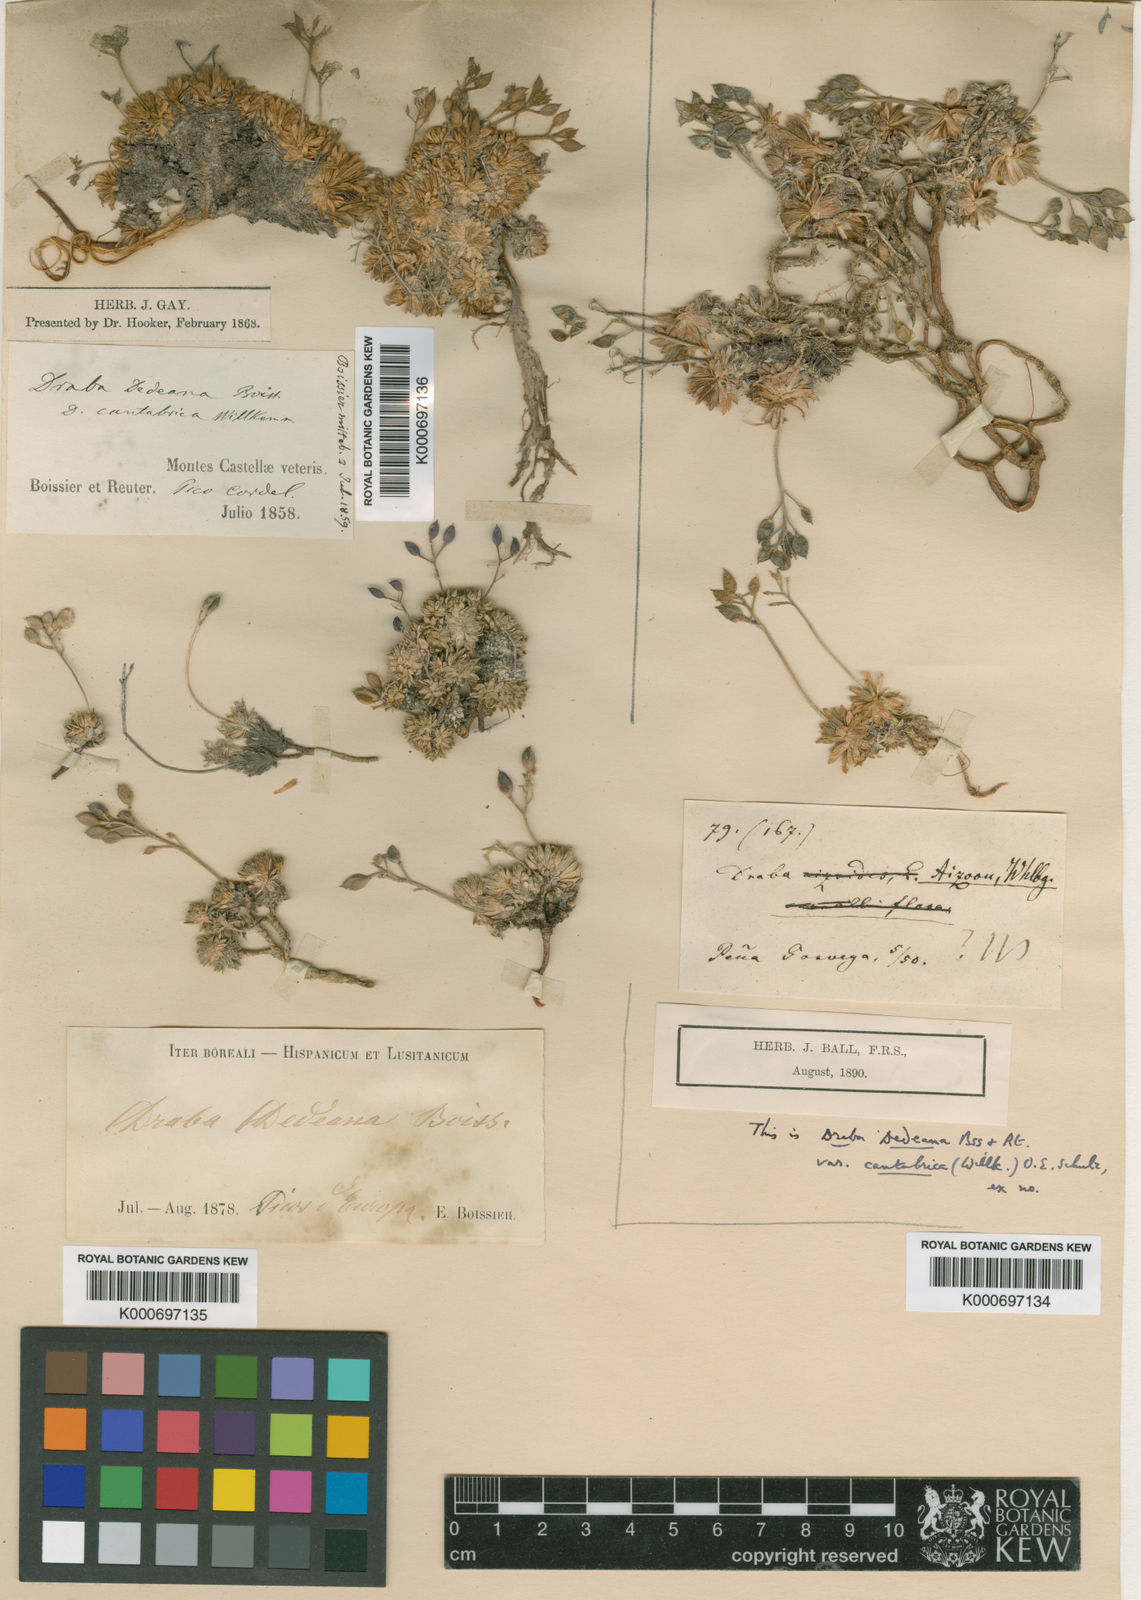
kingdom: Plantae
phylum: Tracheophyta
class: Magnoliopsida
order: Brassicales
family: Brassicaceae
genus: Draba
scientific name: Draba dedeana
